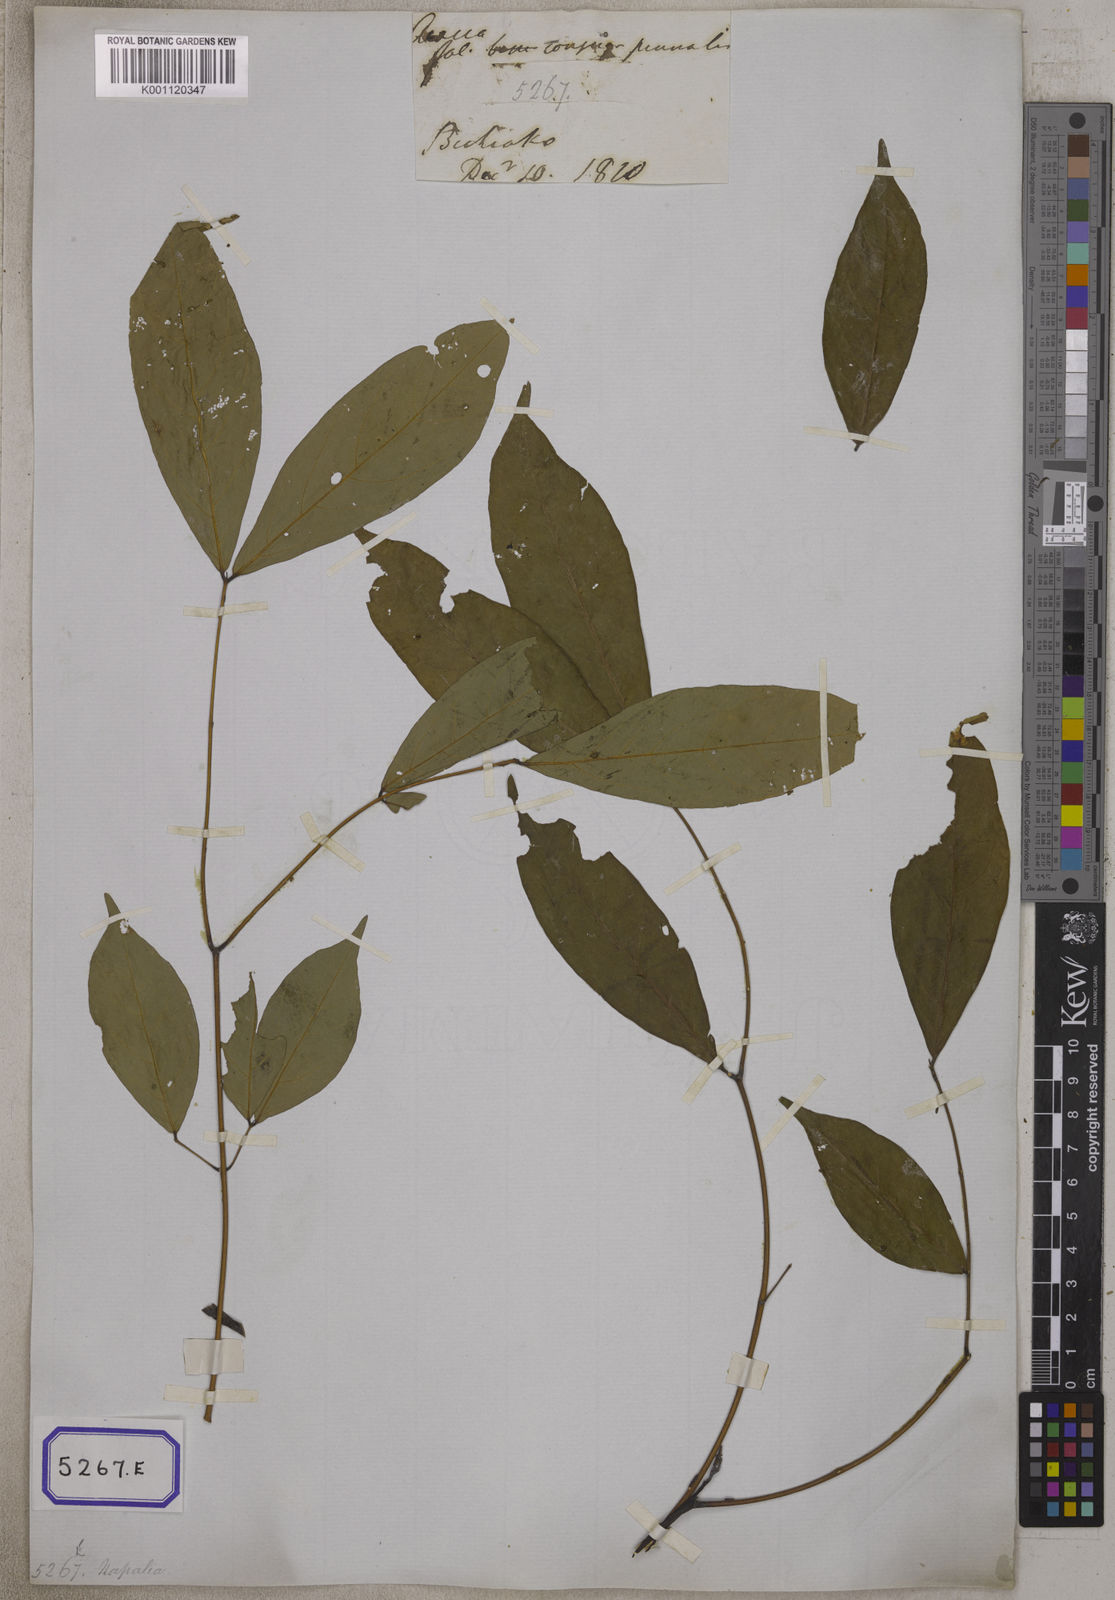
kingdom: Plantae
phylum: Tracheophyta
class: Magnoliopsida
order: Fabales
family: Fabaceae
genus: Albizia
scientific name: Albizia lucidior
